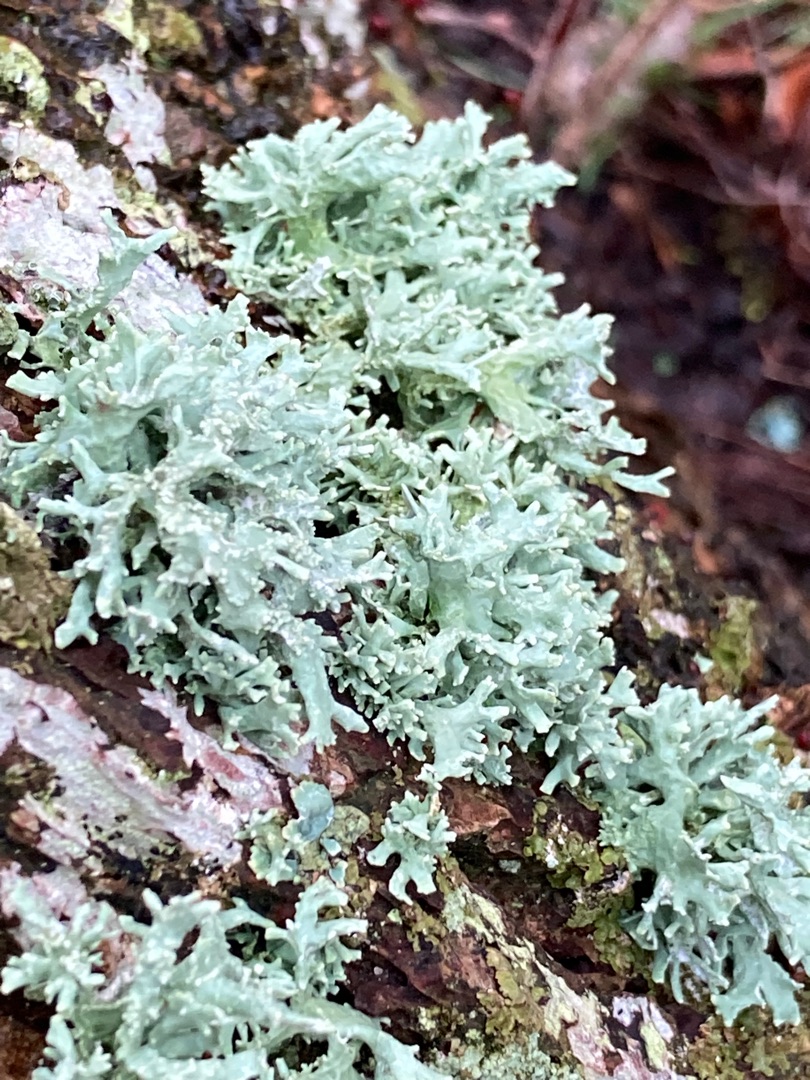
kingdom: Fungi
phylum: Ascomycota
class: Lecanoromycetes
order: Lecanorales
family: Parmeliaceae
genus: Evernia
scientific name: Evernia prunastri
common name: Almindelig slåenlav
